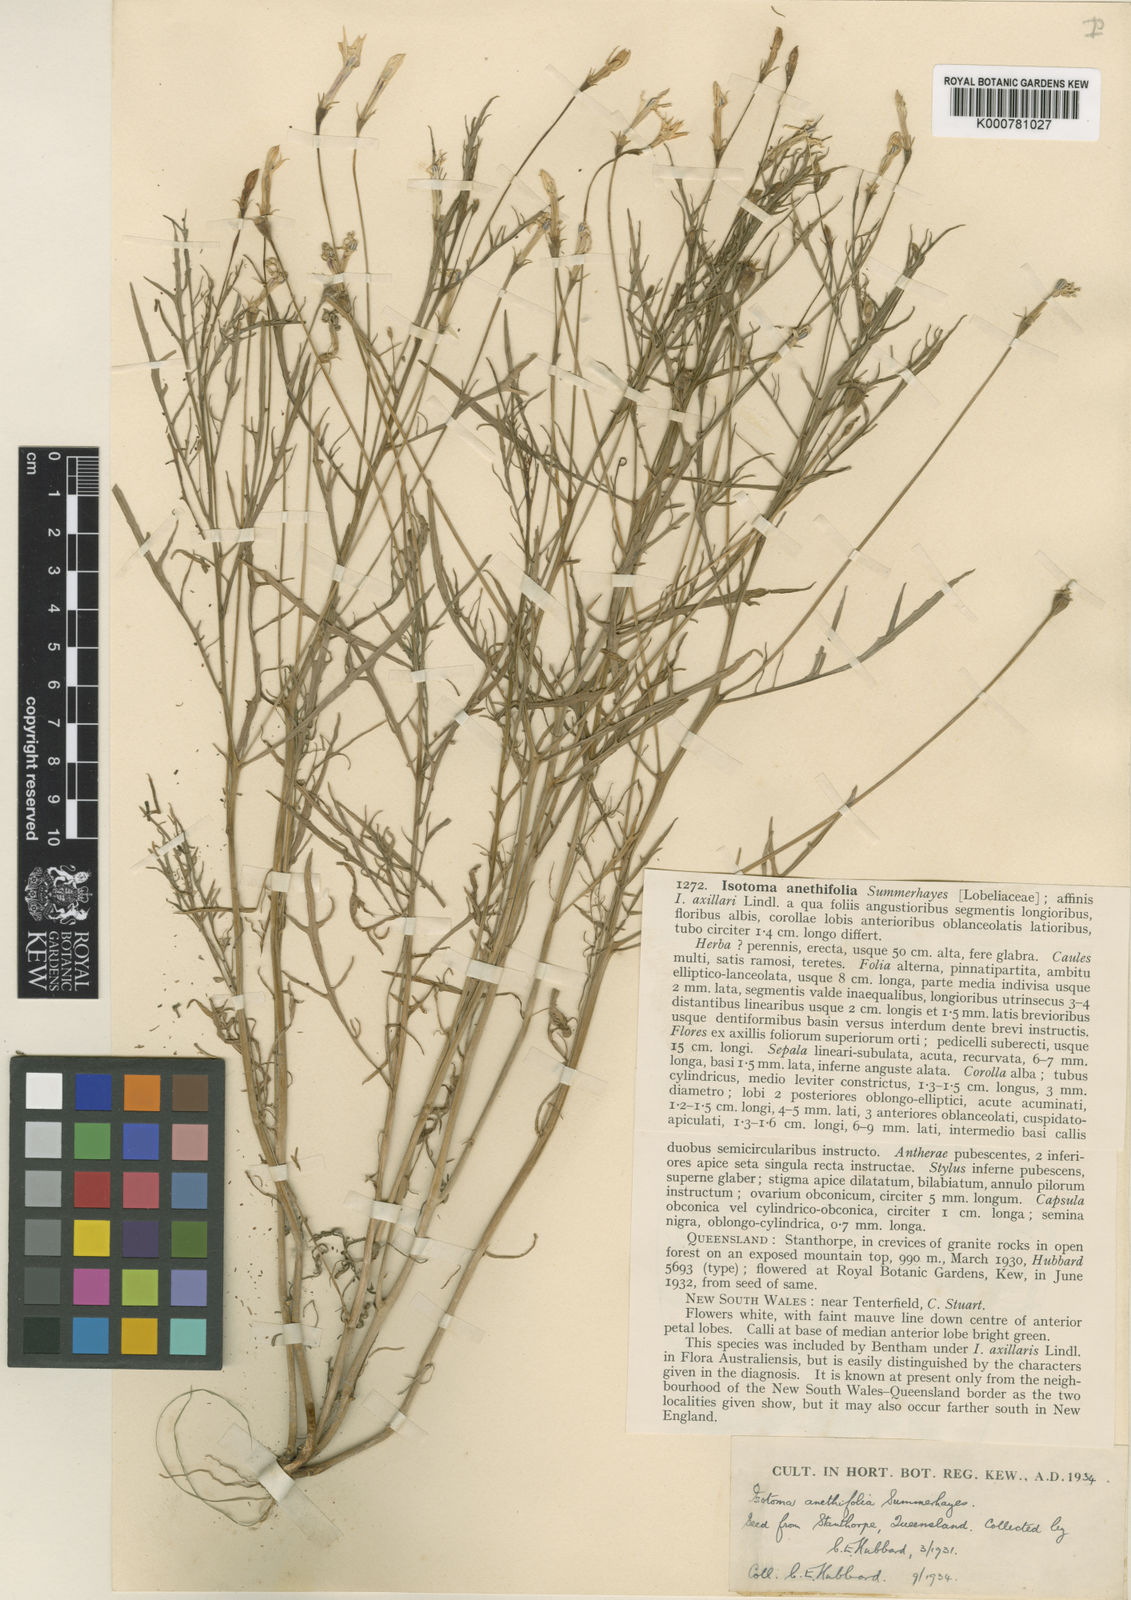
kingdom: Plantae
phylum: Tracheophyta
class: Magnoliopsida
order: Asterales
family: Campanulaceae
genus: Lithotoma
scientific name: Lithotoma anethifolia
